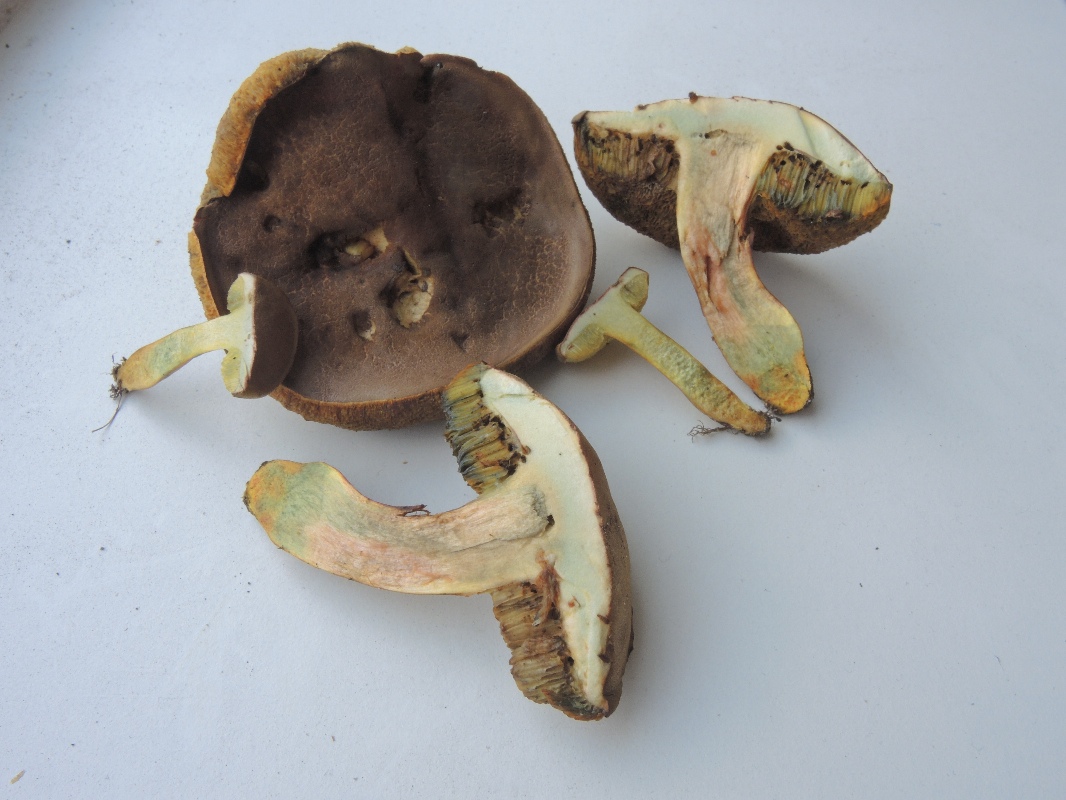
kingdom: Fungi
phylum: Basidiomycota
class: Agaricomycetes
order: Boletales
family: Boletaceae
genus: Hortiboletus
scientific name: Hortiboletus engelii
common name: fersken-rørhat
